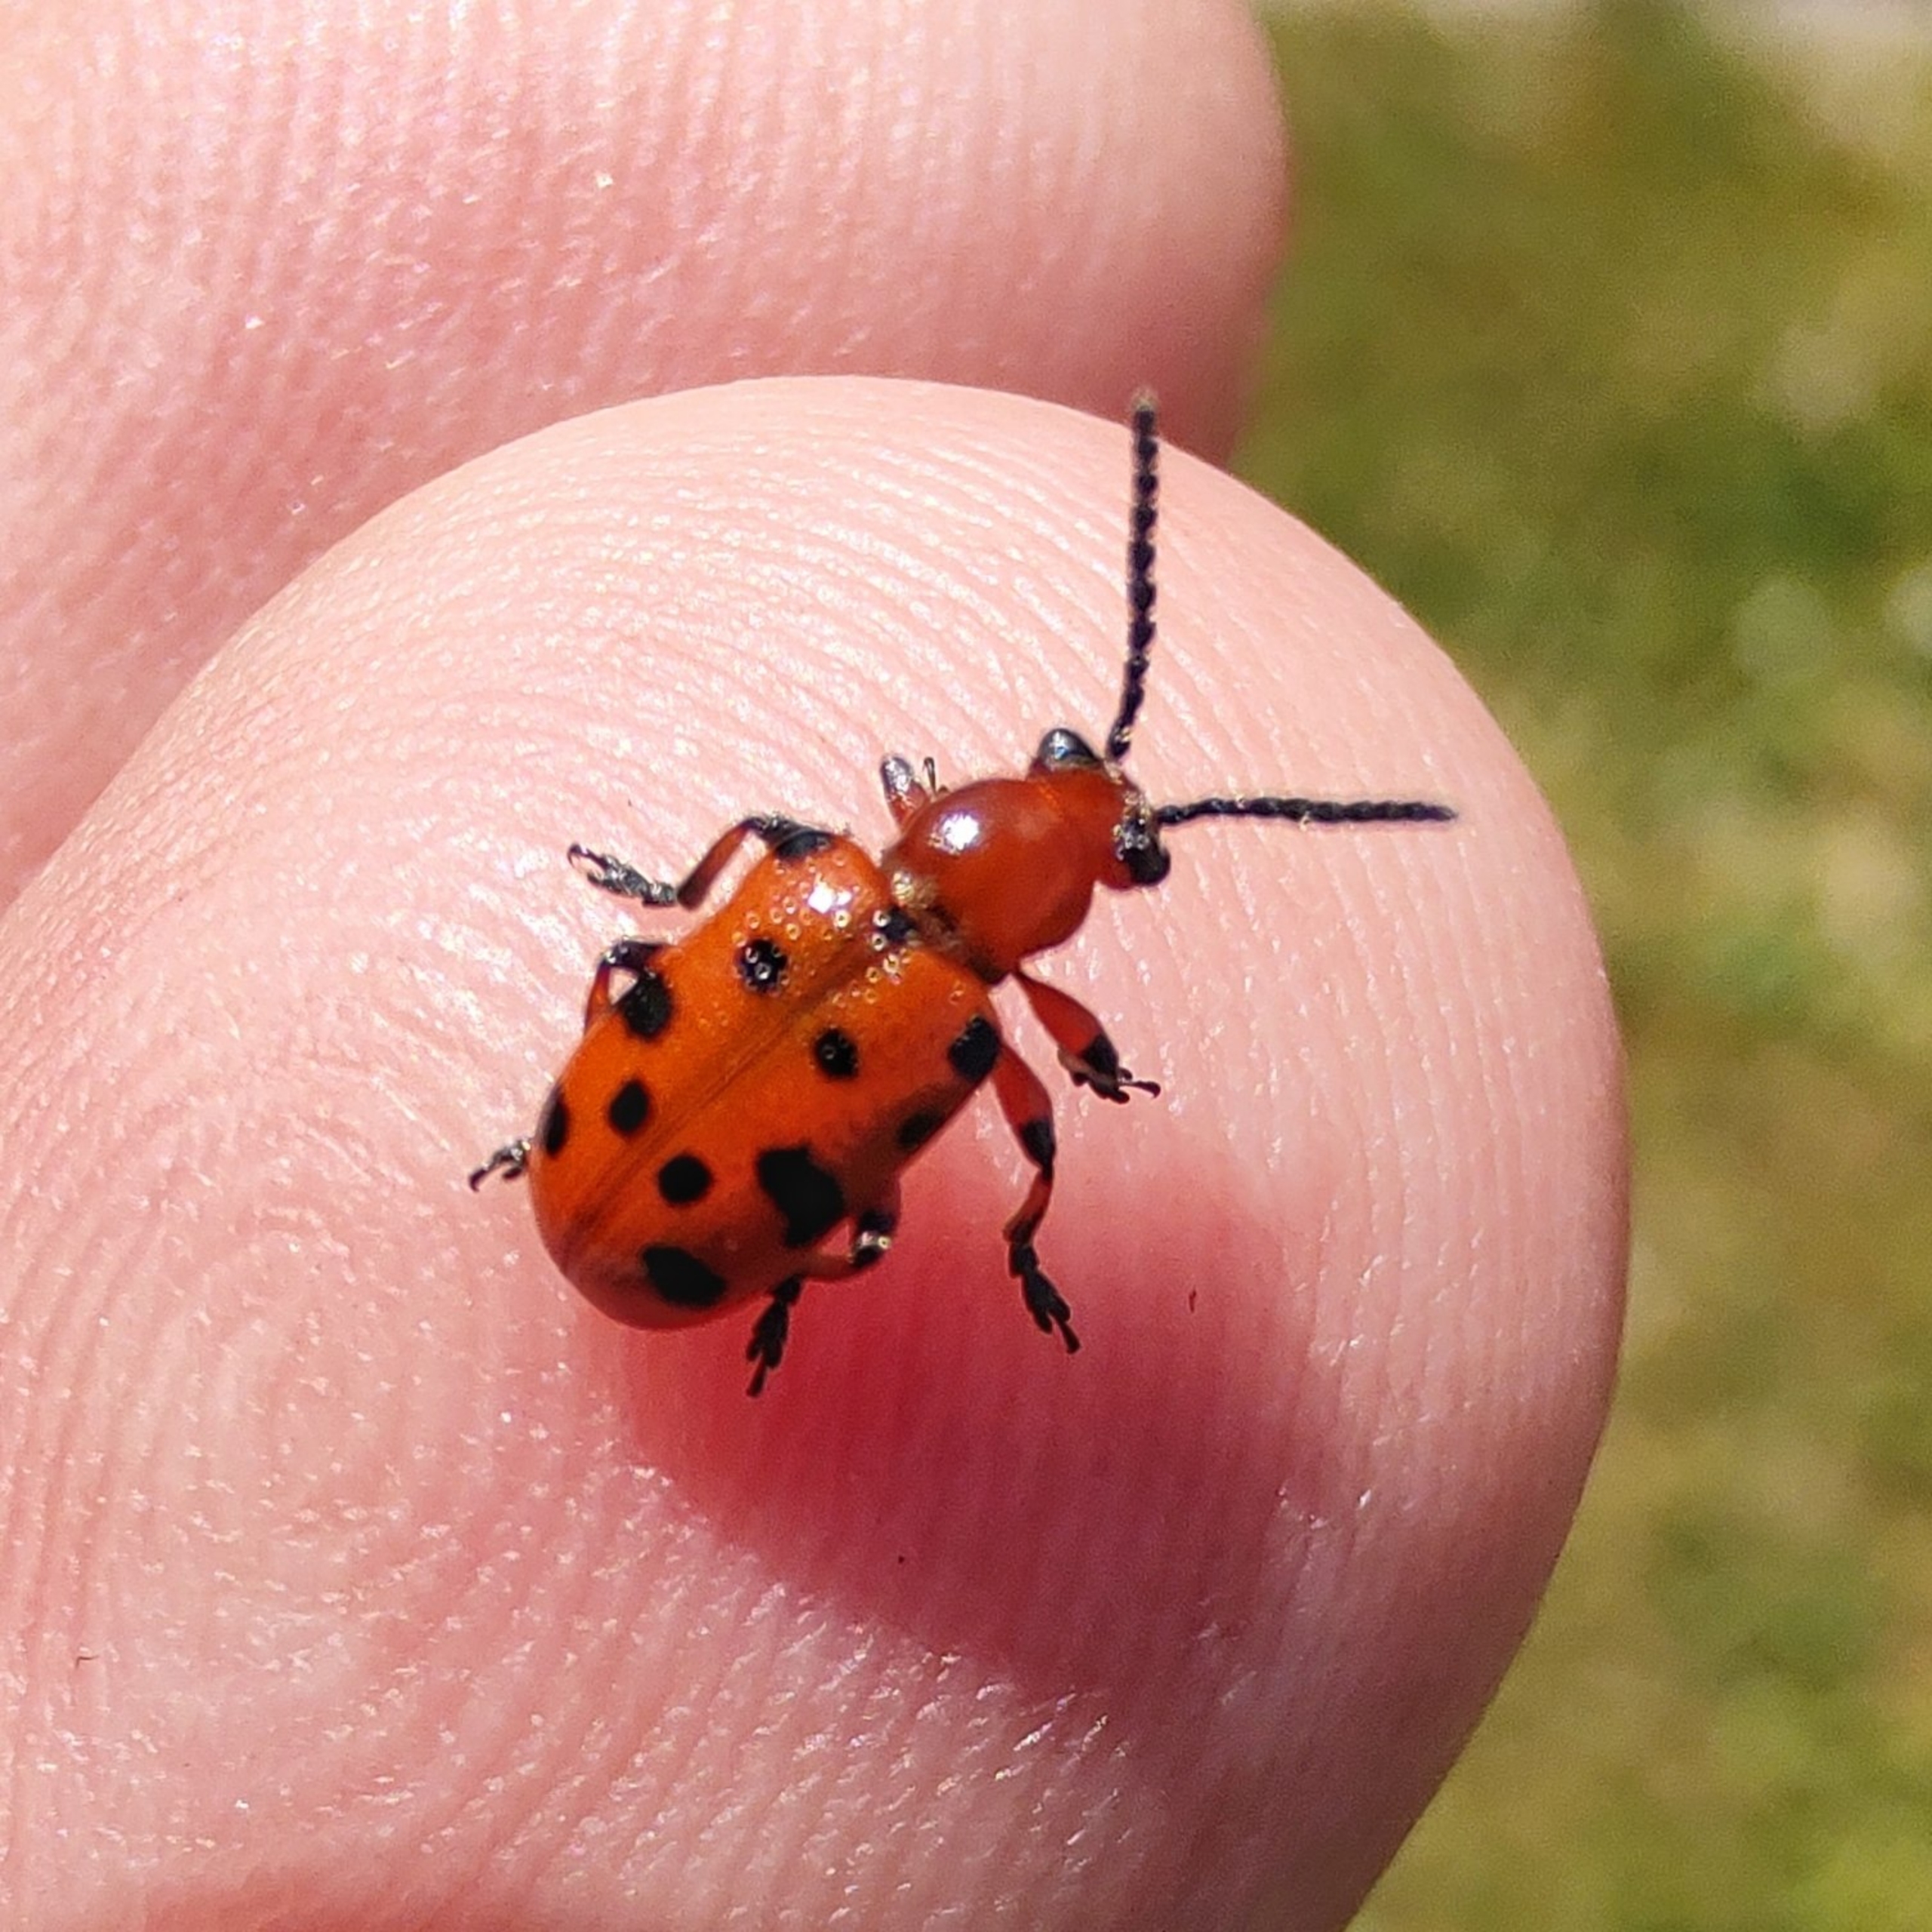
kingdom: Animalia
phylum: Arthropoda
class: Insecta
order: Coleoptera
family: Chrysomelidae
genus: Crioceris
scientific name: Crioceris duodecimpunctata
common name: Tolvplettet aspargesbille
